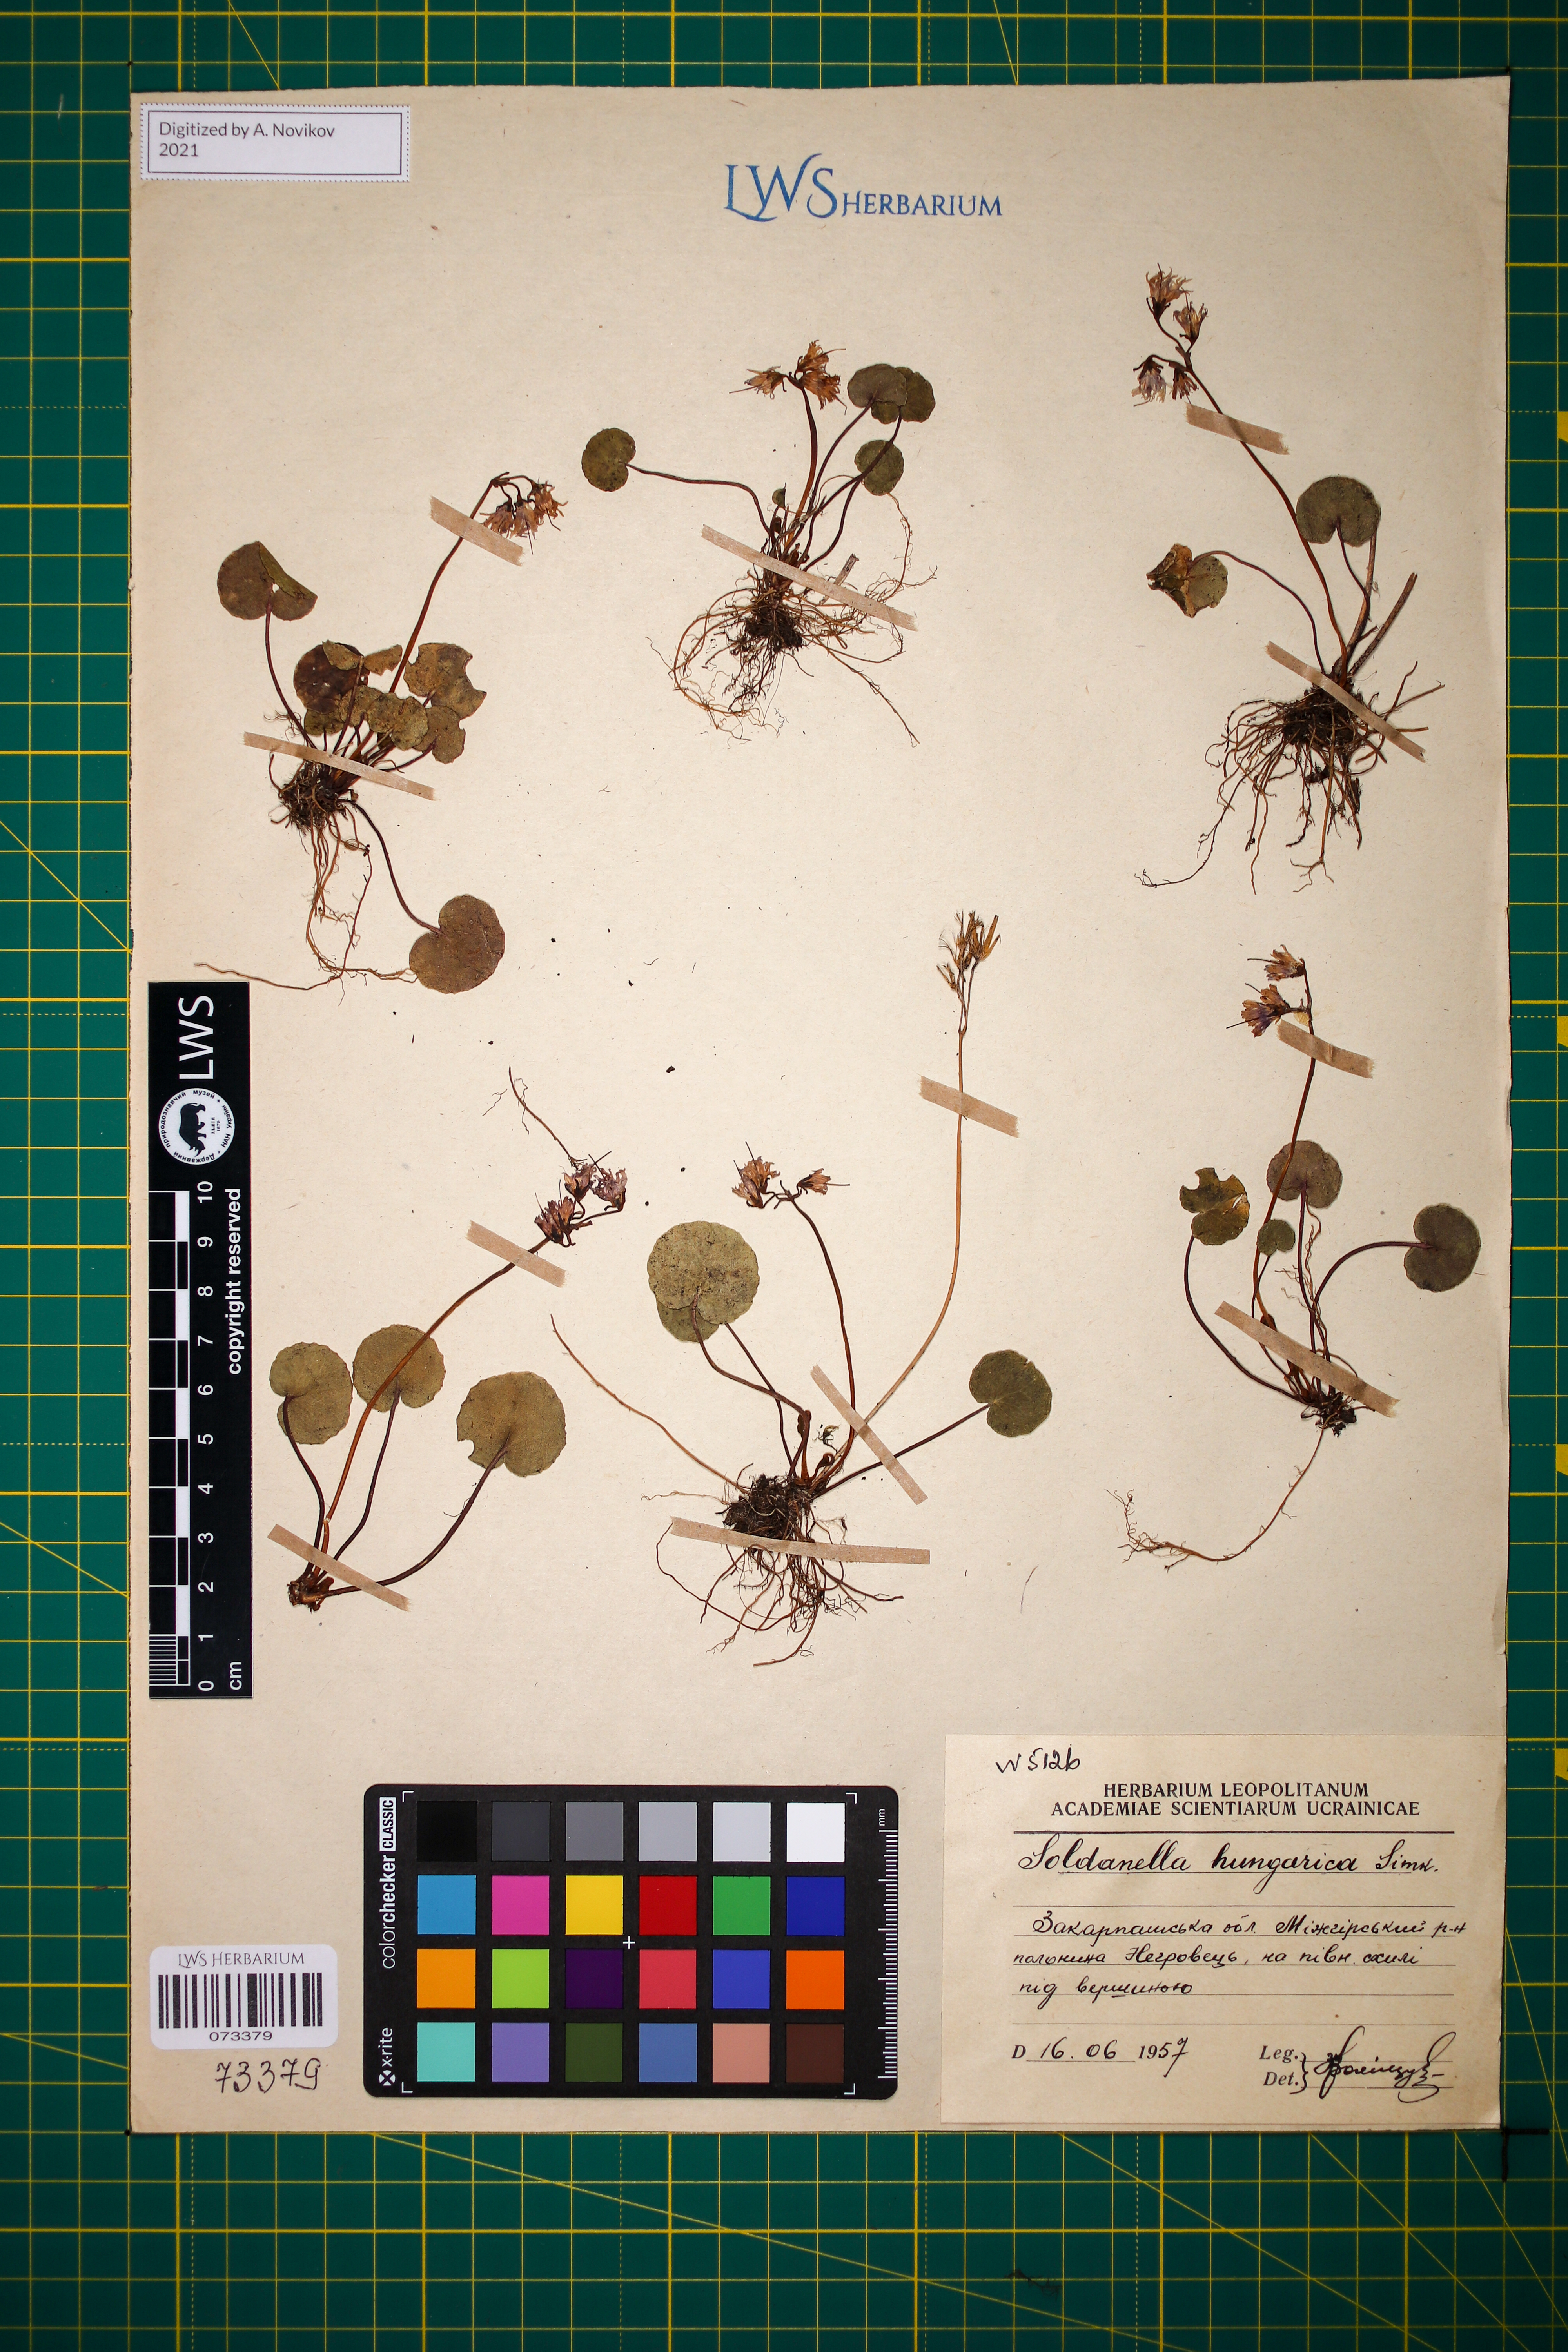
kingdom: Plantae
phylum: Tracheophyta
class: Magnoliopsida
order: Ericales
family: Primulaceae
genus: Soldanella
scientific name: Soldanella hungarica
